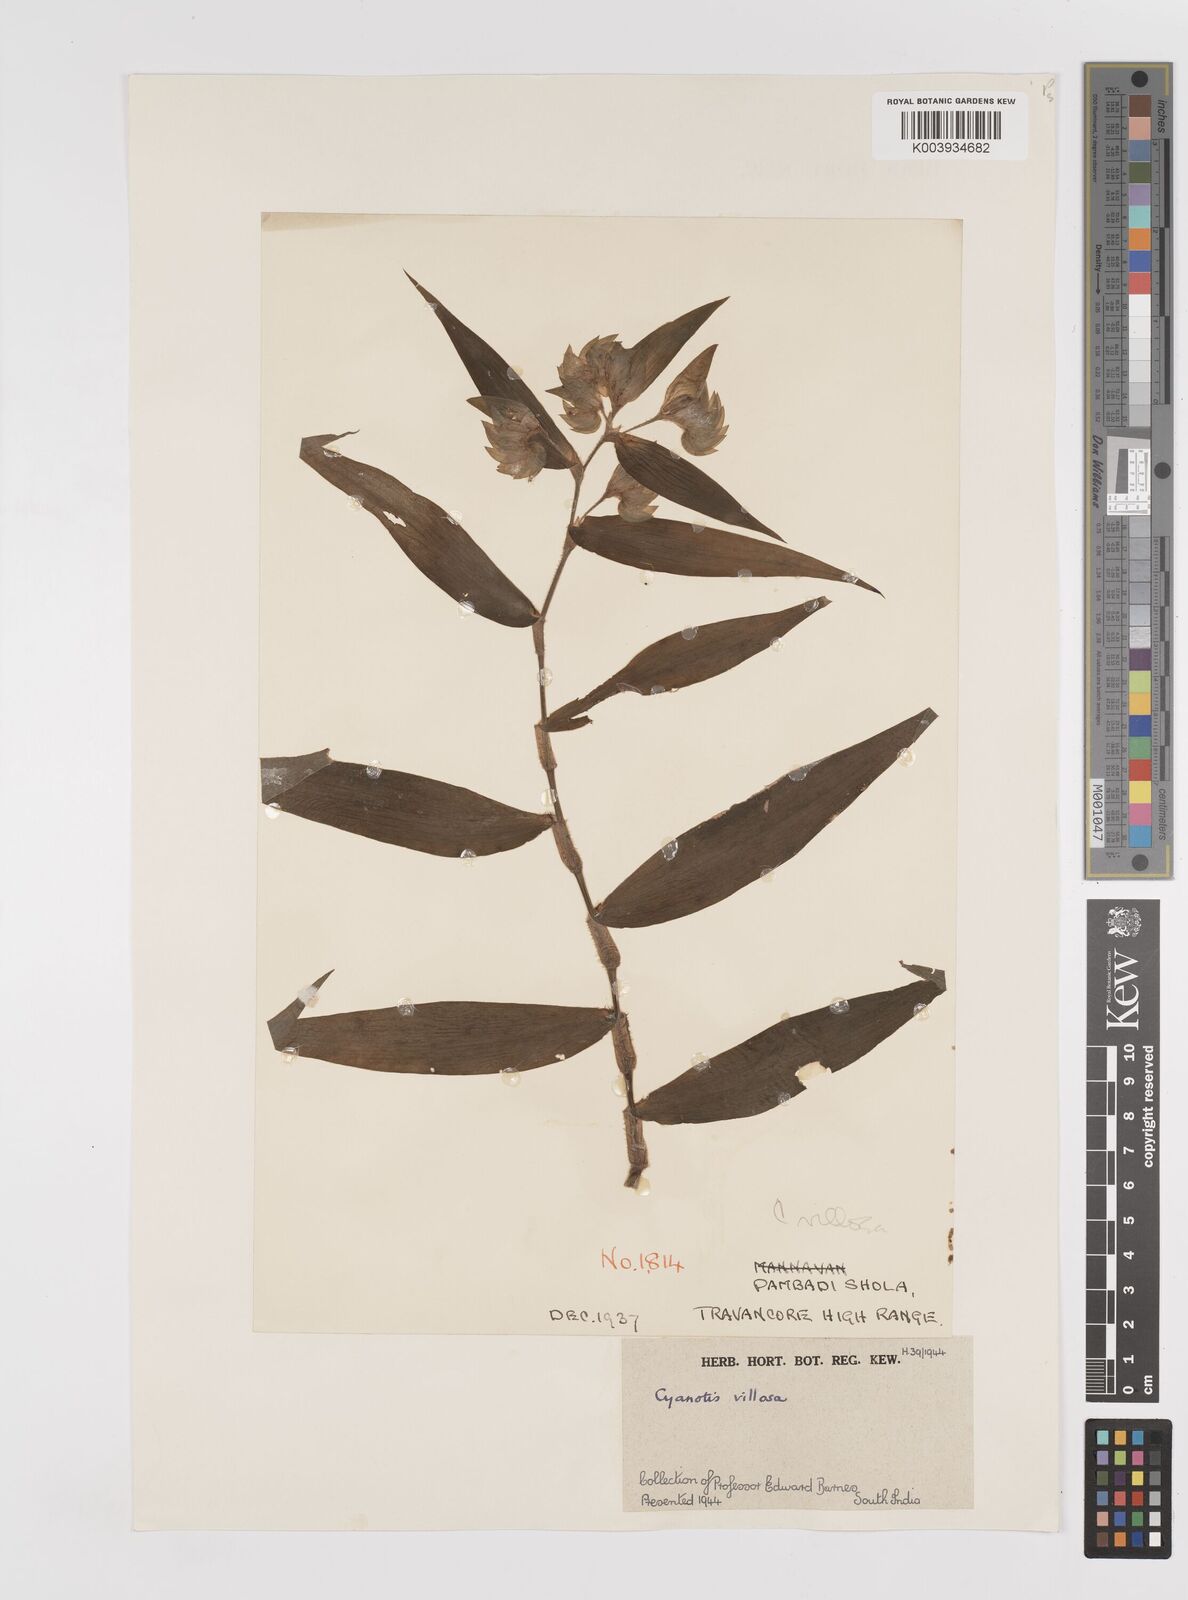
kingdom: Plantae
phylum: Tracheophyta
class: Liliopsida
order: Commelinales
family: Commelinaceae
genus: Cyanotis
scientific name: Cyanotis villosa
